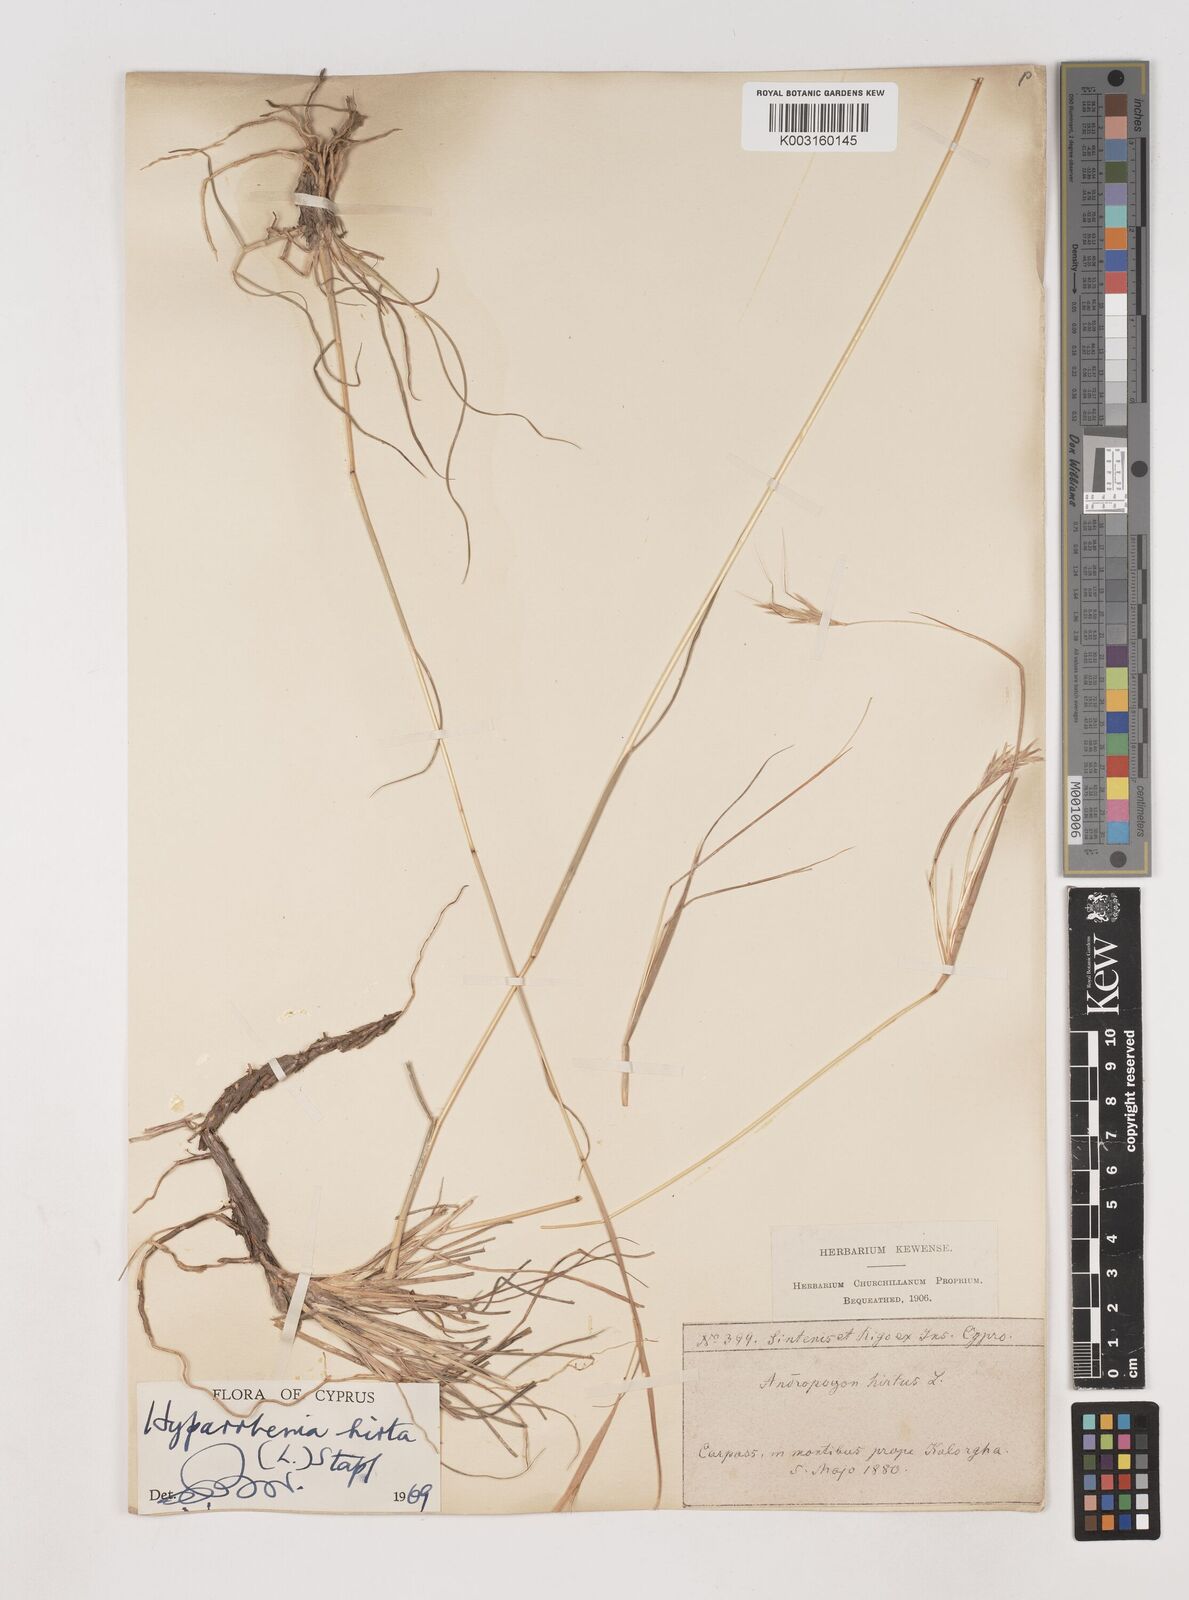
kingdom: Plantae
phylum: Tracheophyta
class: Liliopsida
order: Poales
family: Poaceae
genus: Hyparrhenia
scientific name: Hyparrhenia hirta
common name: Thatching grass
